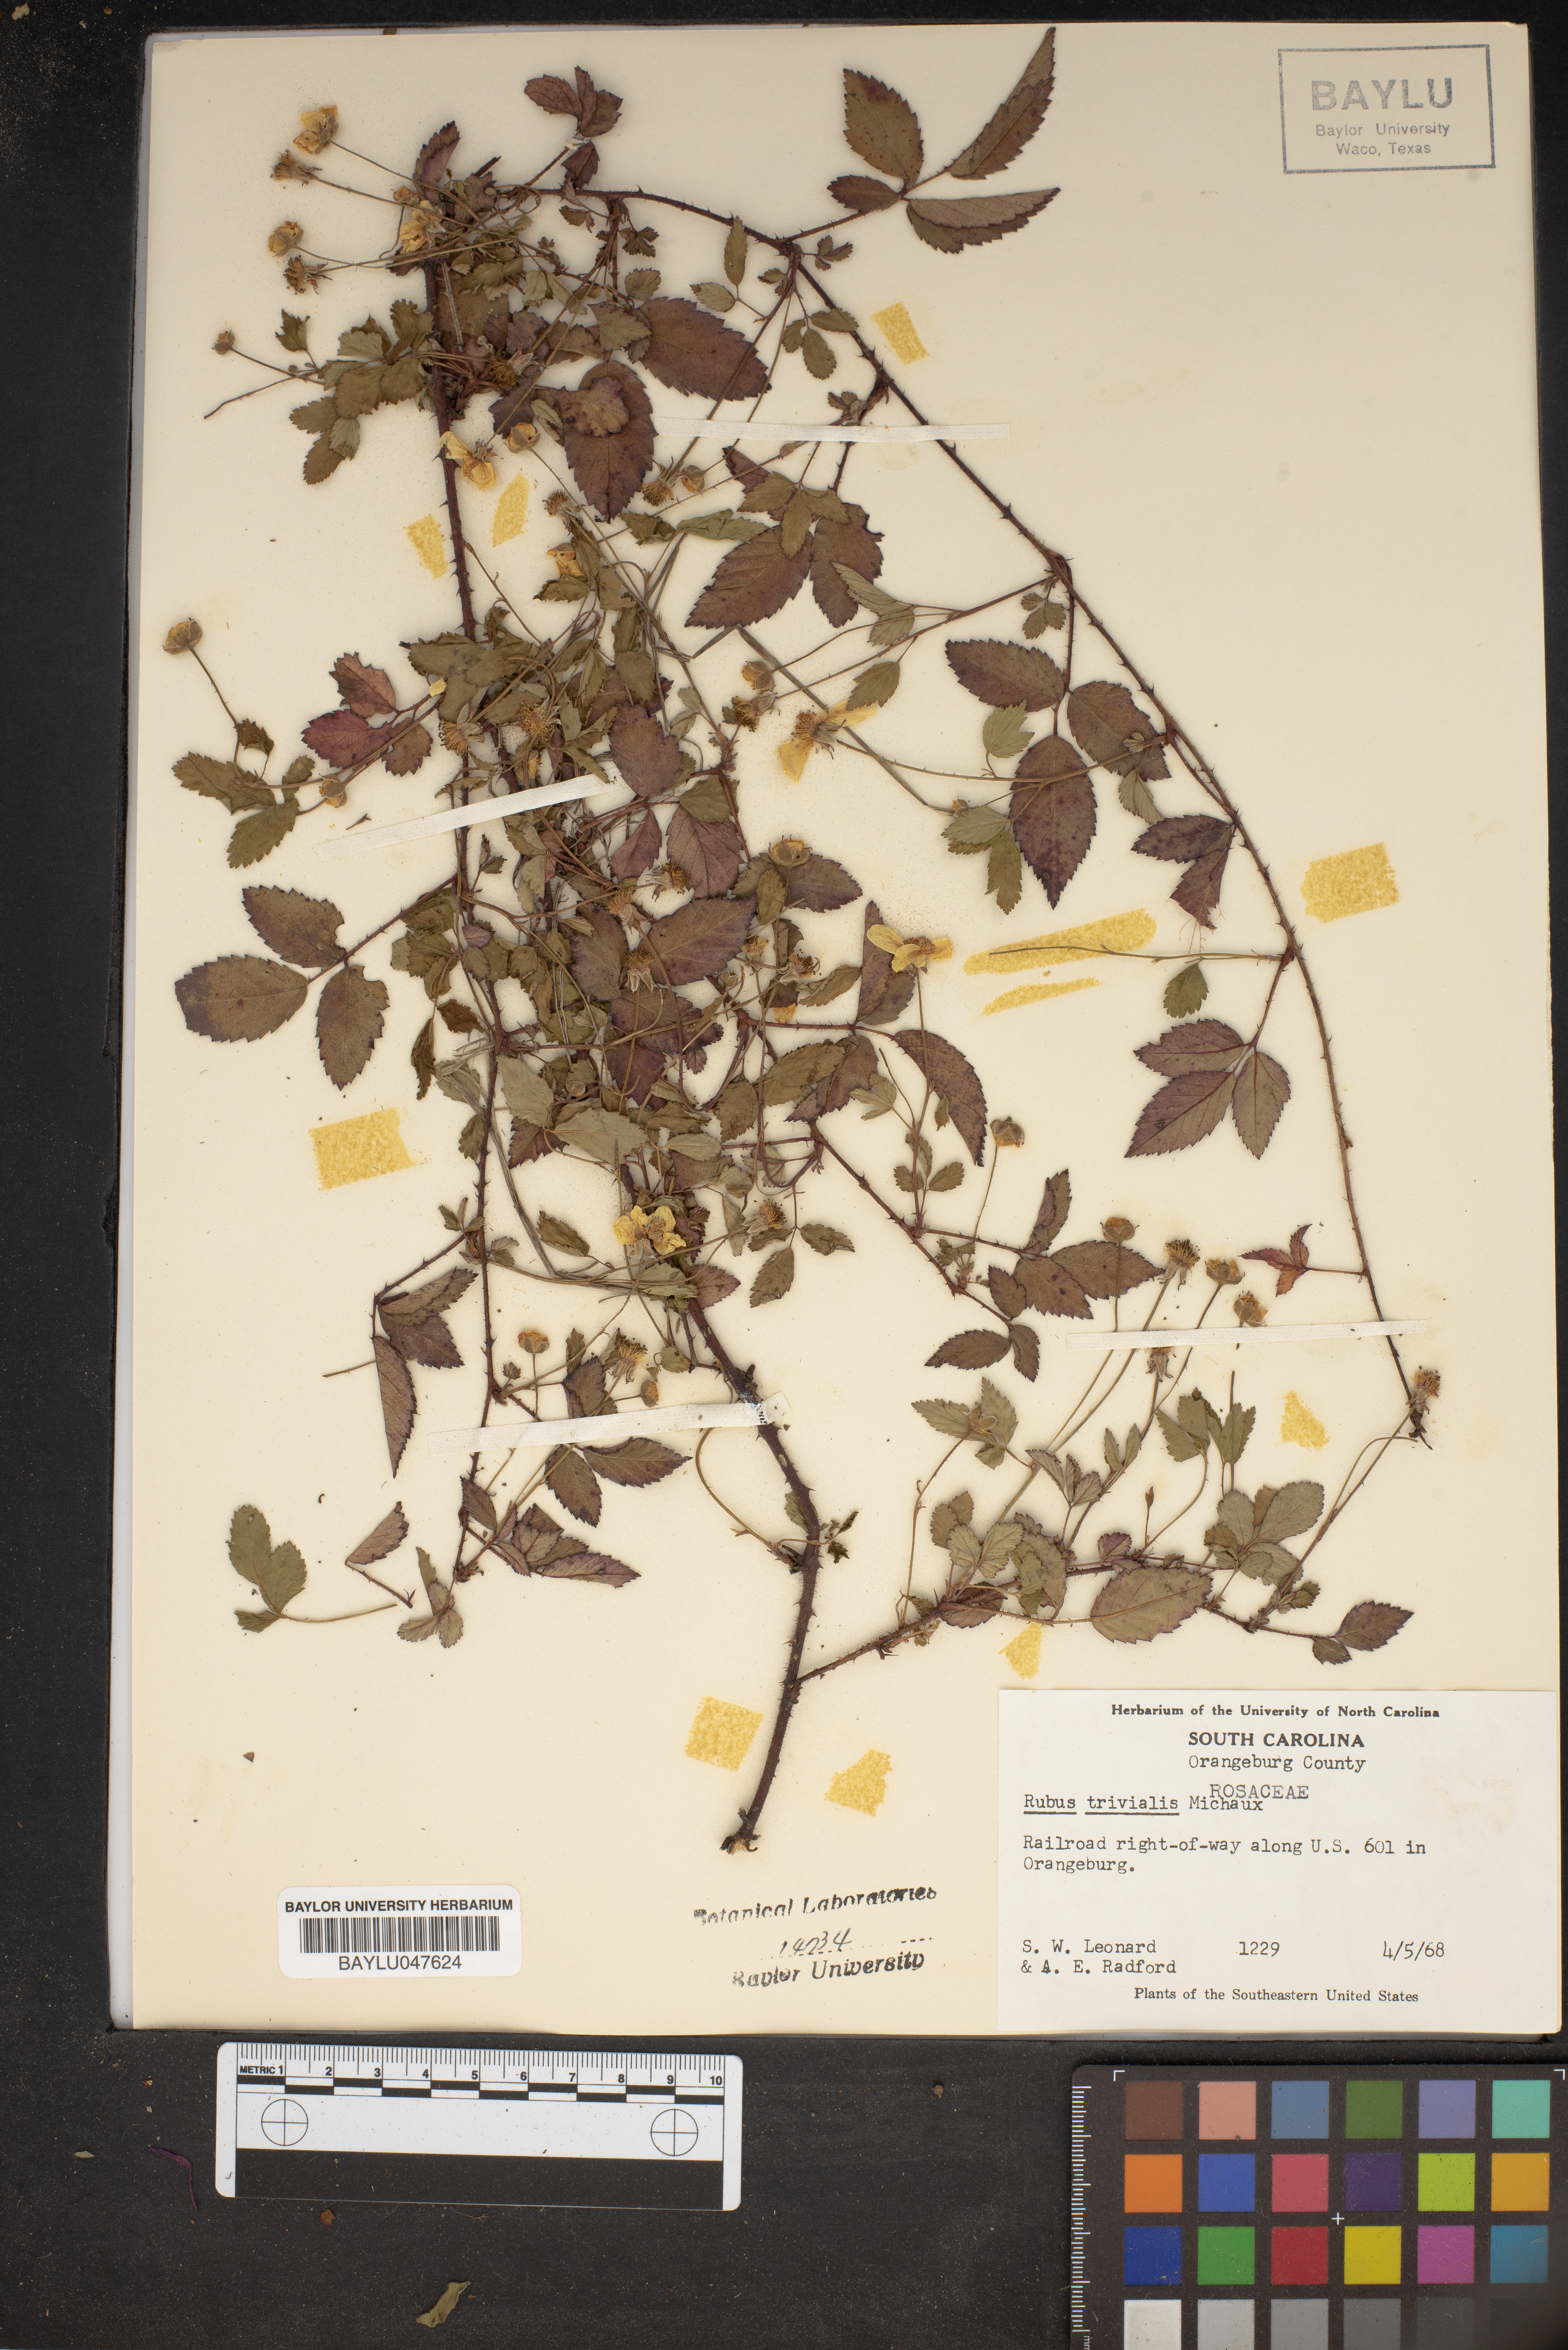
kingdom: Plantae
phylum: Tracheophyta
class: Magnoliopsida
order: Rosales
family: Rosaceae
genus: Rubus
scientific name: Rubus trivialis
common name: Southern dewberry
